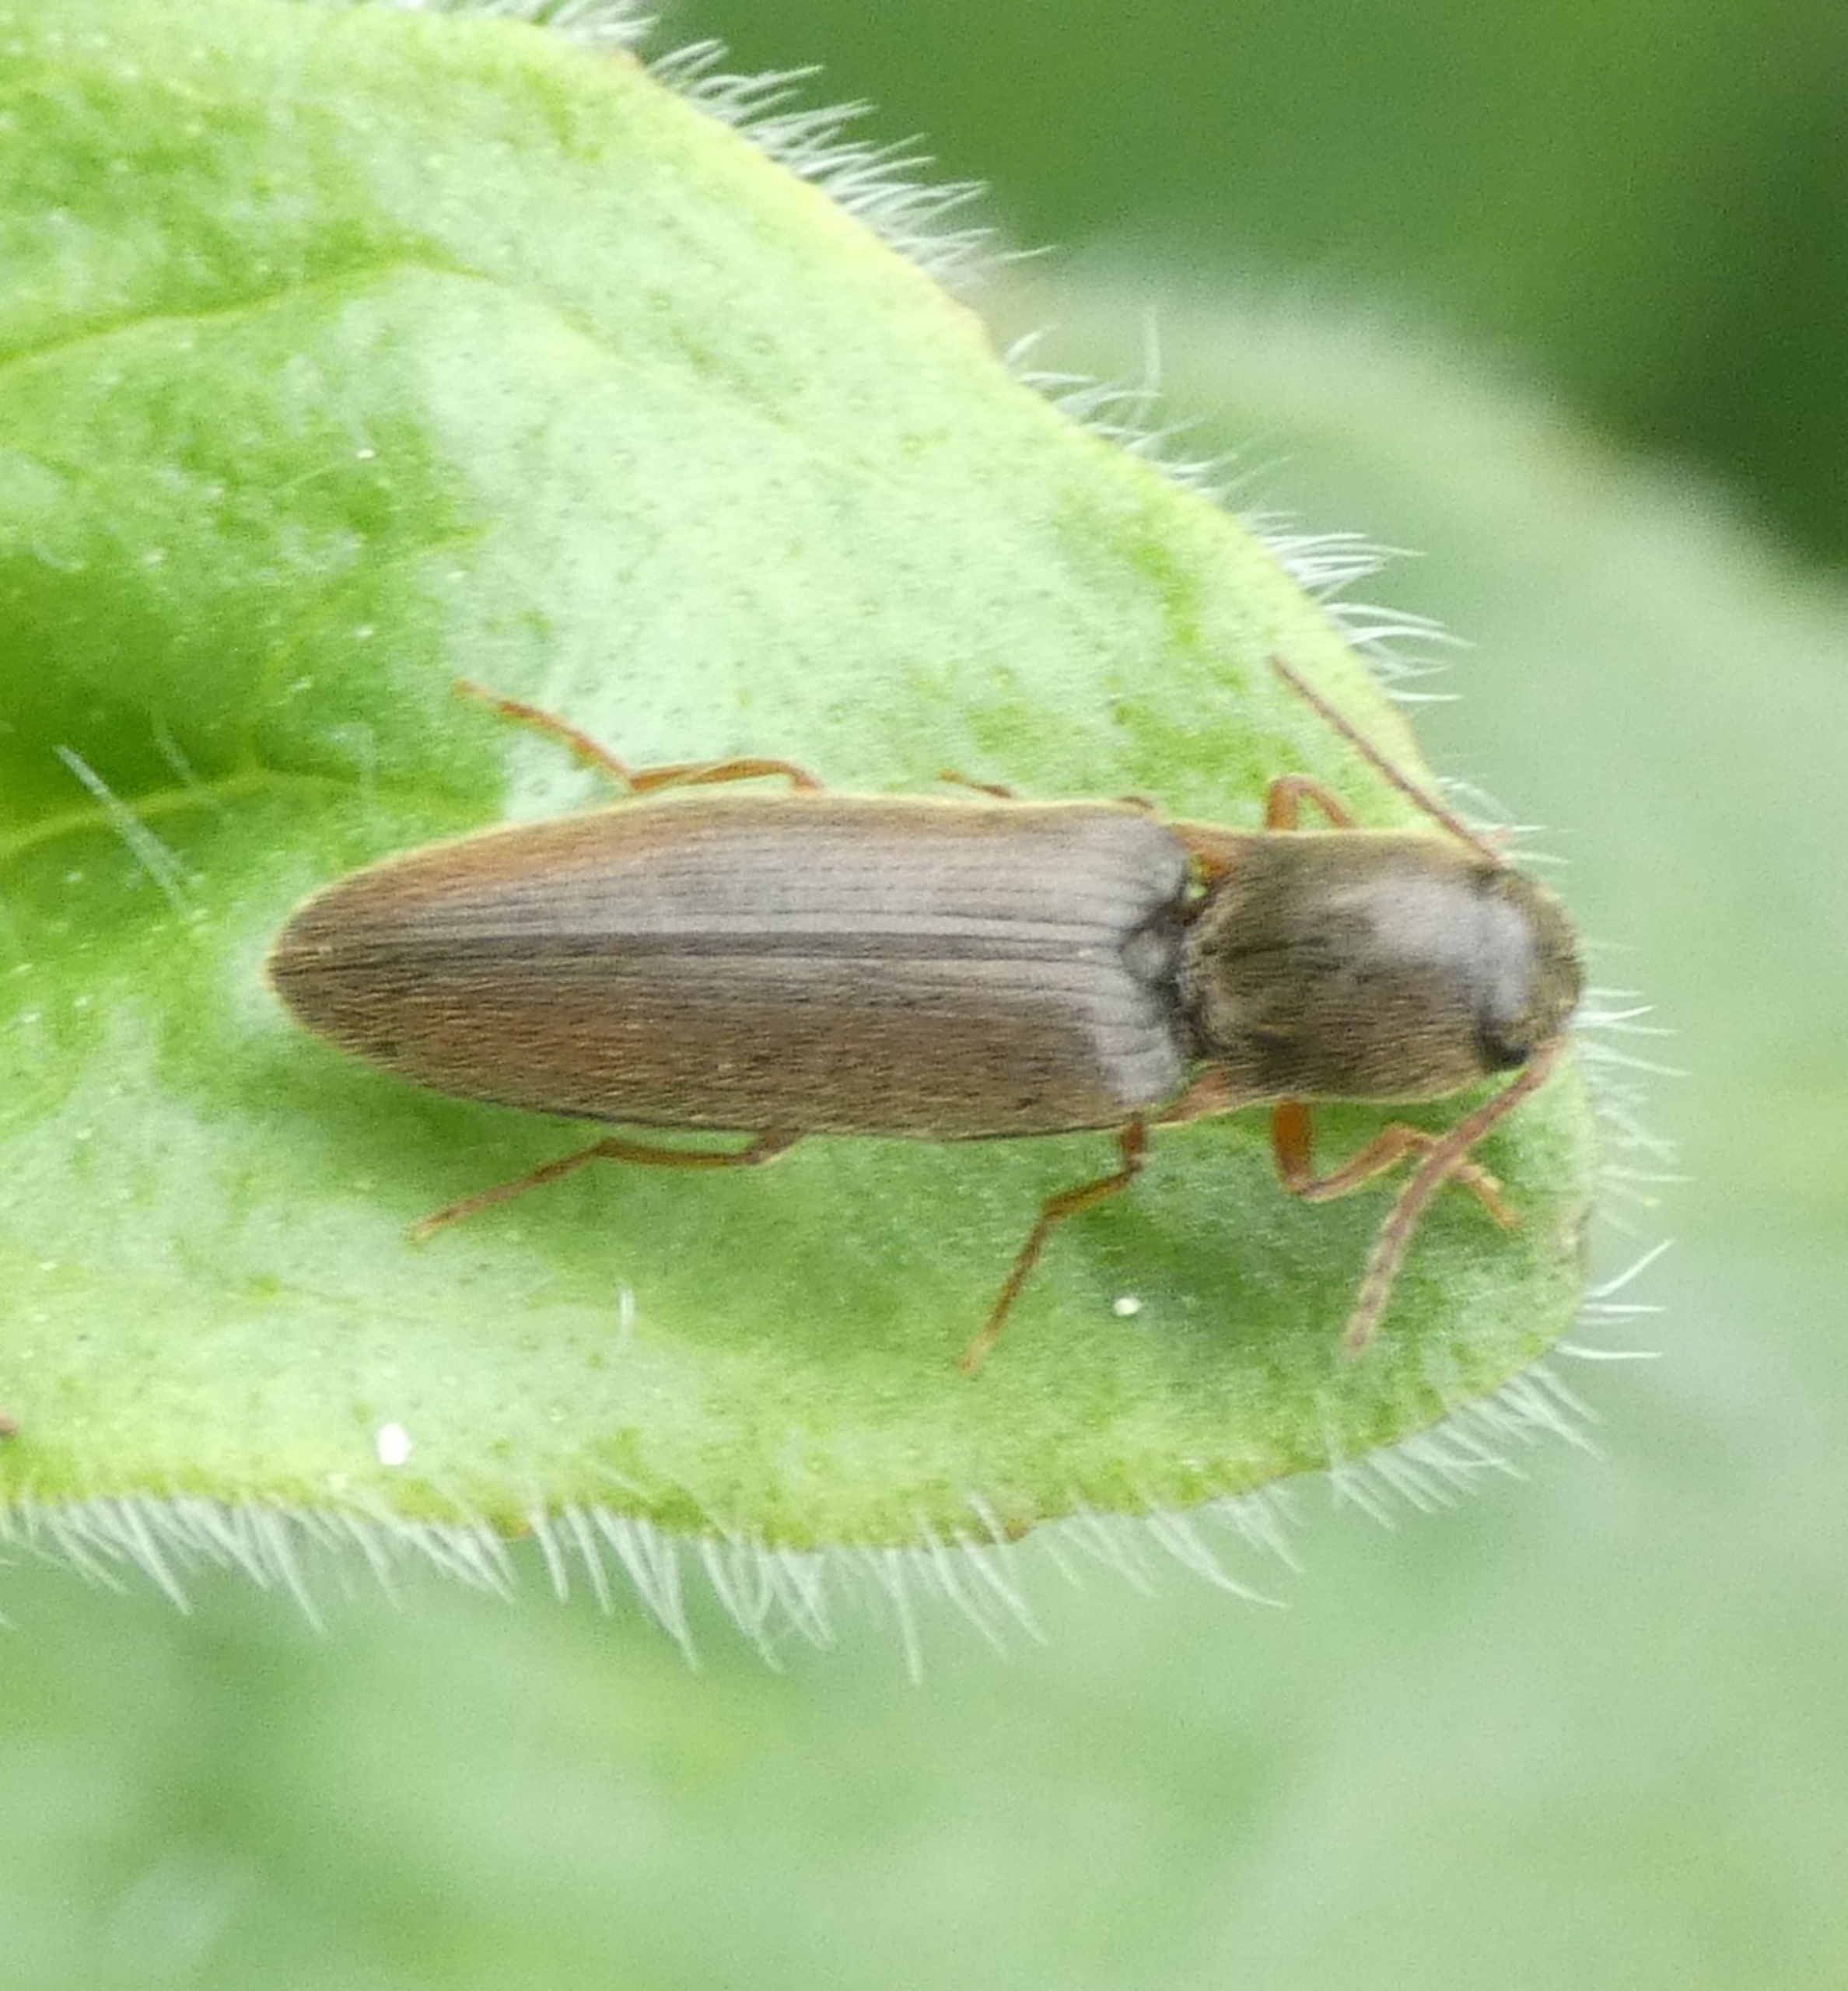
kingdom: Animalia
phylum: Arthropoda
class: Insecta
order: Coleoptera
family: Elateridae
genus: Agriotes
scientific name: Agriotes acuminatus
